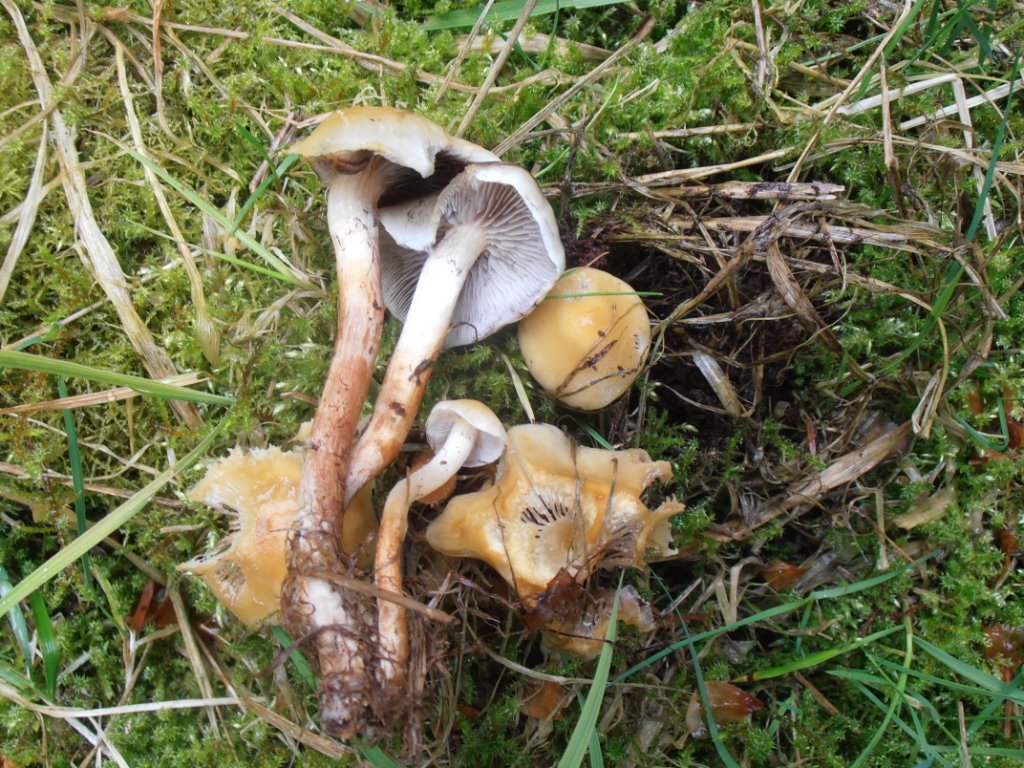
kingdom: Fungi
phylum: Basidiomycota
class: Agaricomycetes
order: Agaricales
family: Strophariaceae
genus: Hypholoma
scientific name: Hypholoma capnoides
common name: gran-svovlhat
